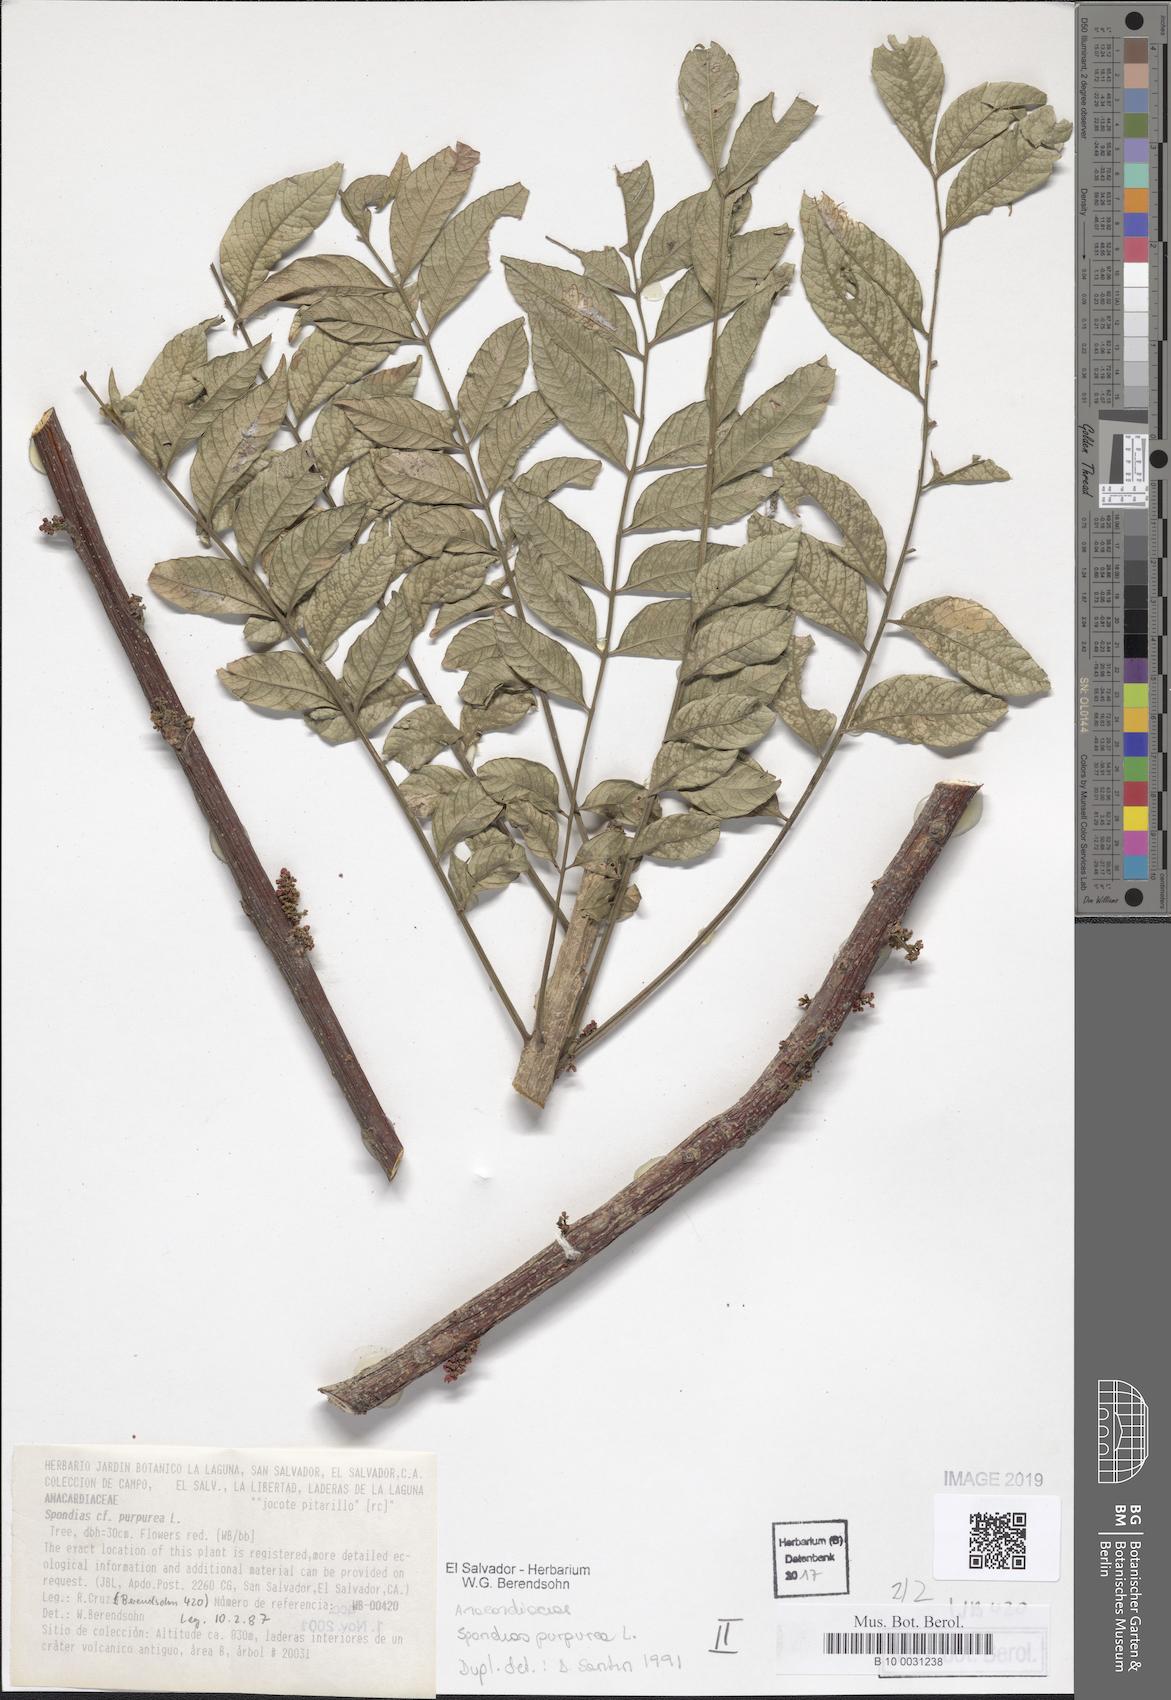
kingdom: Plantae
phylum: Tracheophyta
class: Magnoliopsida
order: Sapindales
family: Anacardiaceae
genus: Spondias
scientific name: Spondias purpurea
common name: Purple mombin
